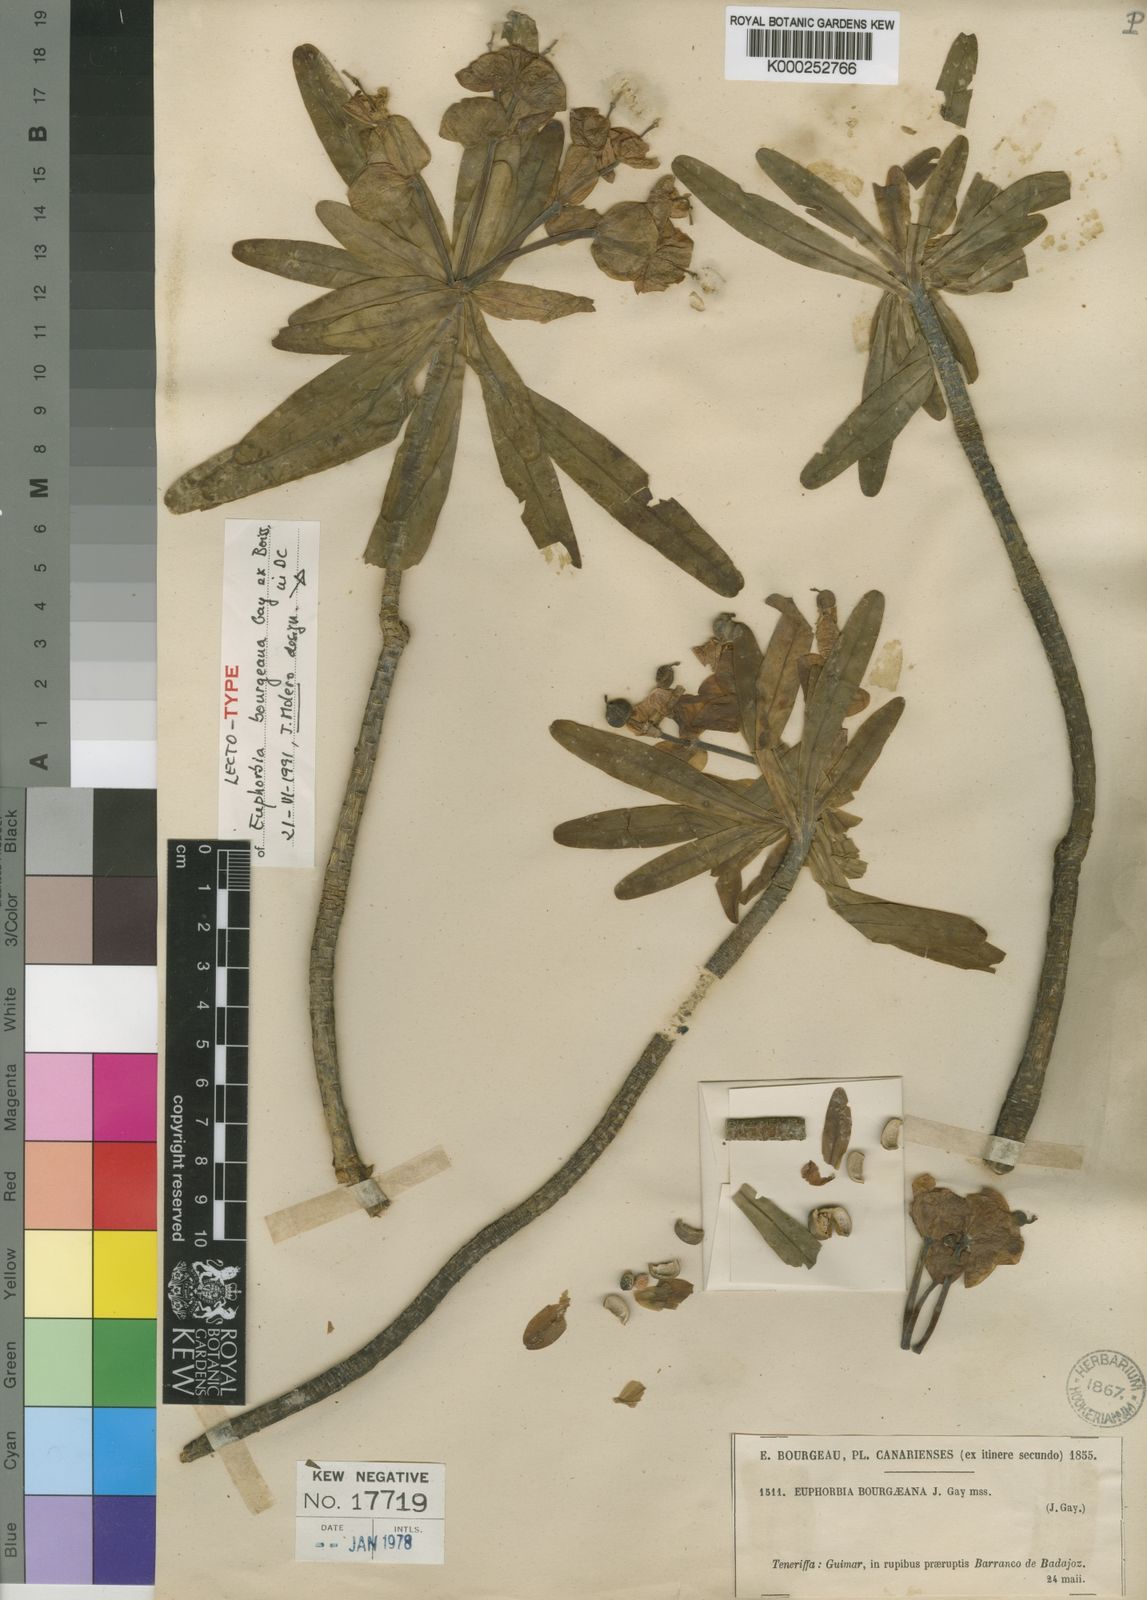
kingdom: Plantae
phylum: Tracheophyta
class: Magnoliopsida
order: Malpighiales
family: Euphorbiaceae
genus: Euphorbia
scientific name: Euphorbia
